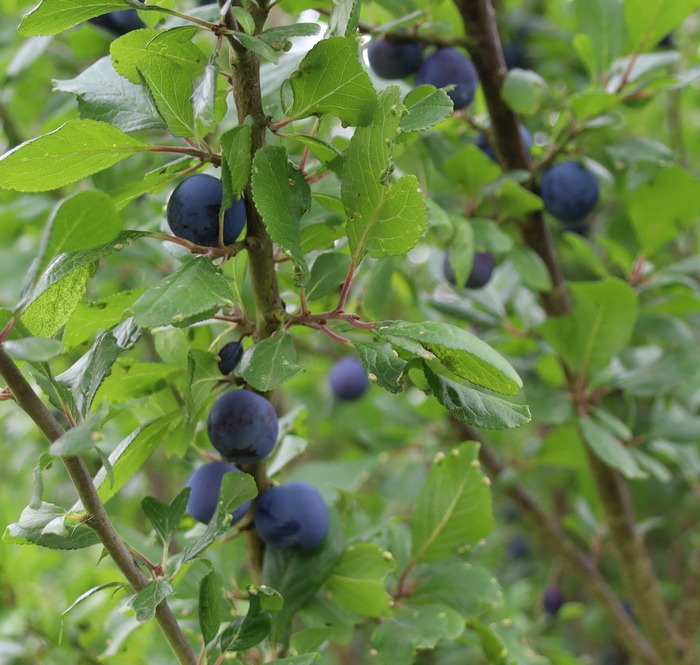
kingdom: Plantae
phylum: Tracheophyta
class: Magnoliopsida
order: Rosales
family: Rosaceae
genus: Prunus
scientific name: Prunus domestica
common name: Kræge
